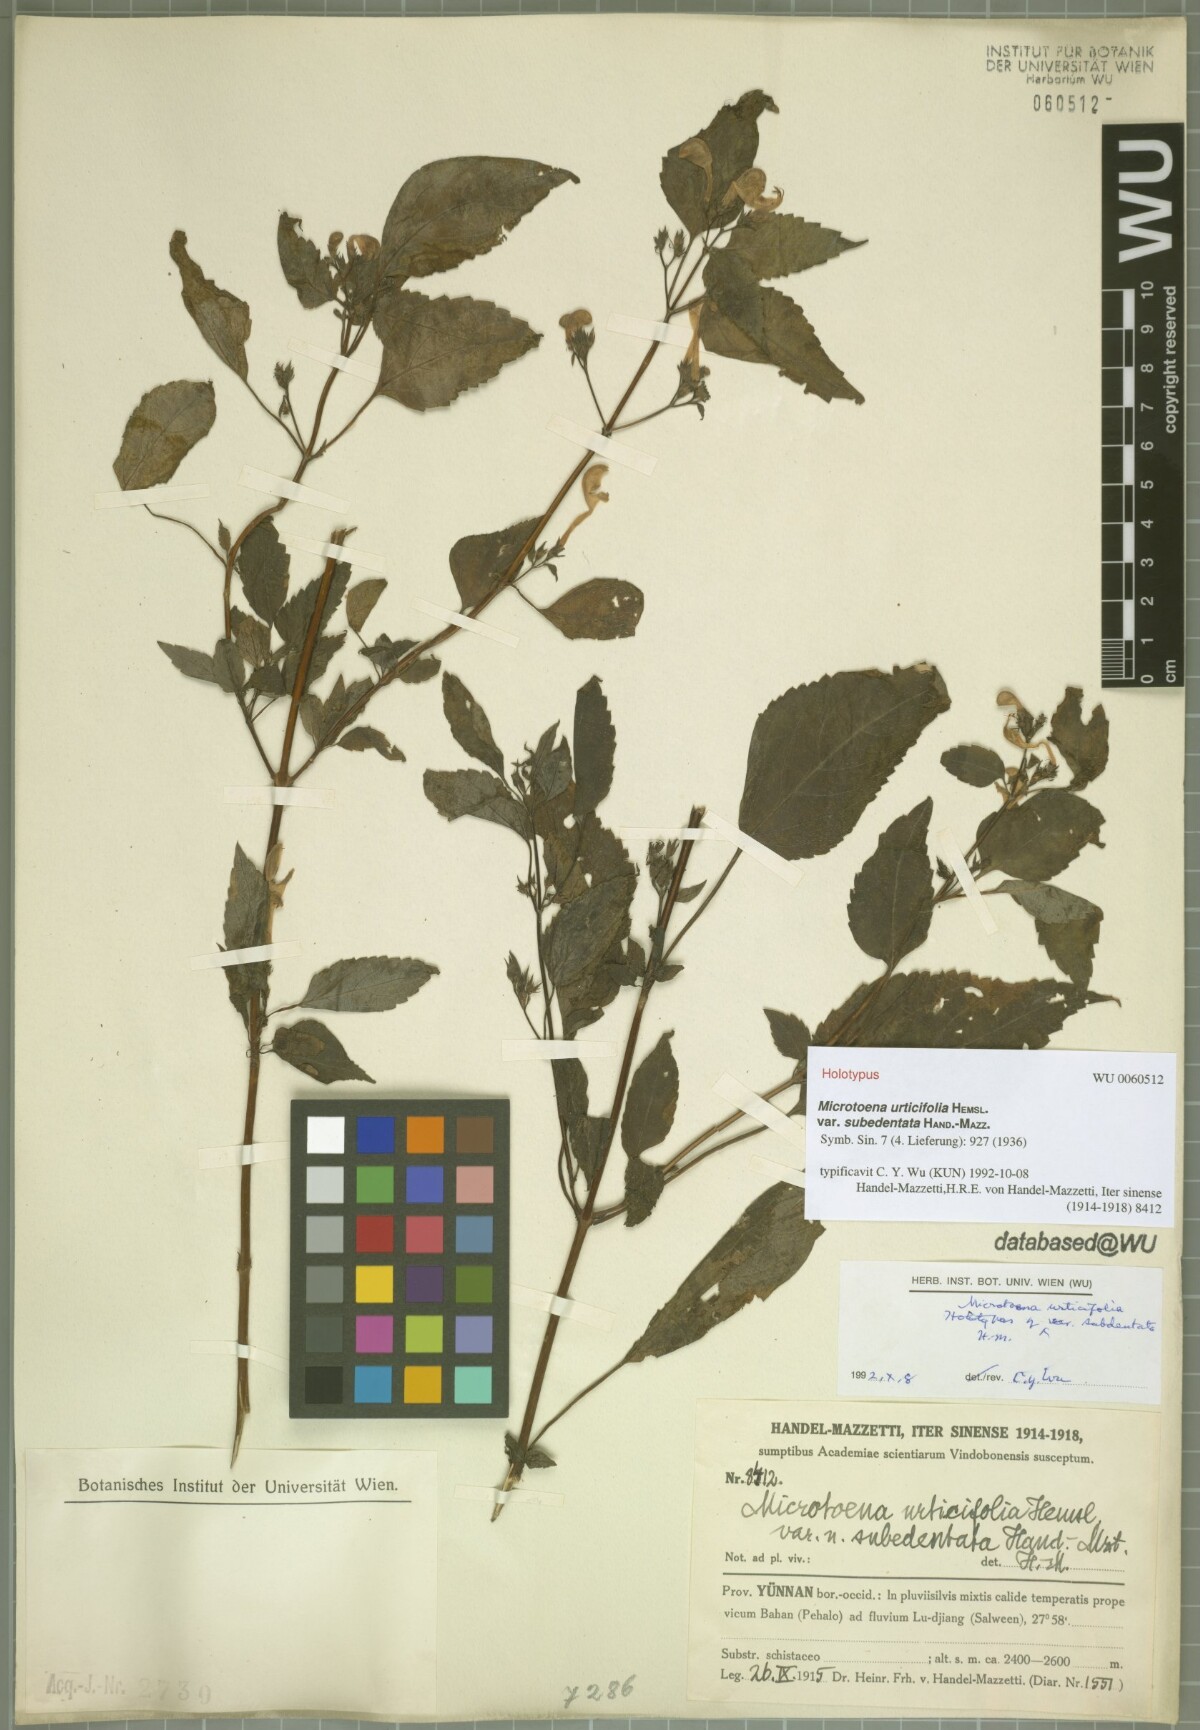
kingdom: Plantae
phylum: Tracheophyta
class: Magnoliopsida
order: Lamiales
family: Lamiaceae
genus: Microtoena
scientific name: Microtoena wardii
